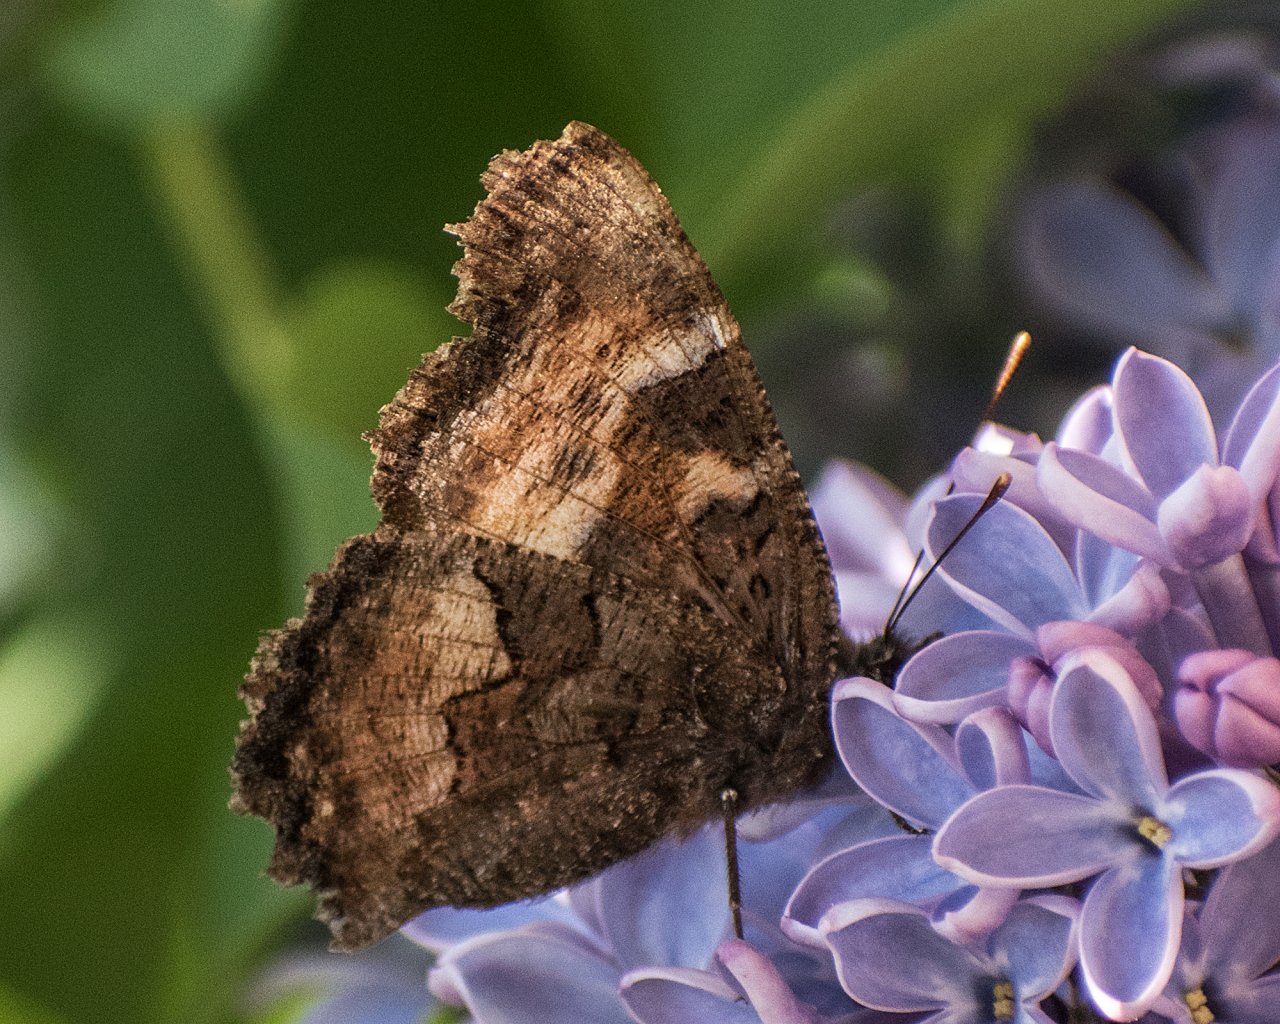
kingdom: Animalia
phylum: Arthropoda
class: Insecta
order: Lepidoptera
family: Nymphalidae
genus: Nymphalis
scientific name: Nymphalis californica
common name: California Tortoiseshell
